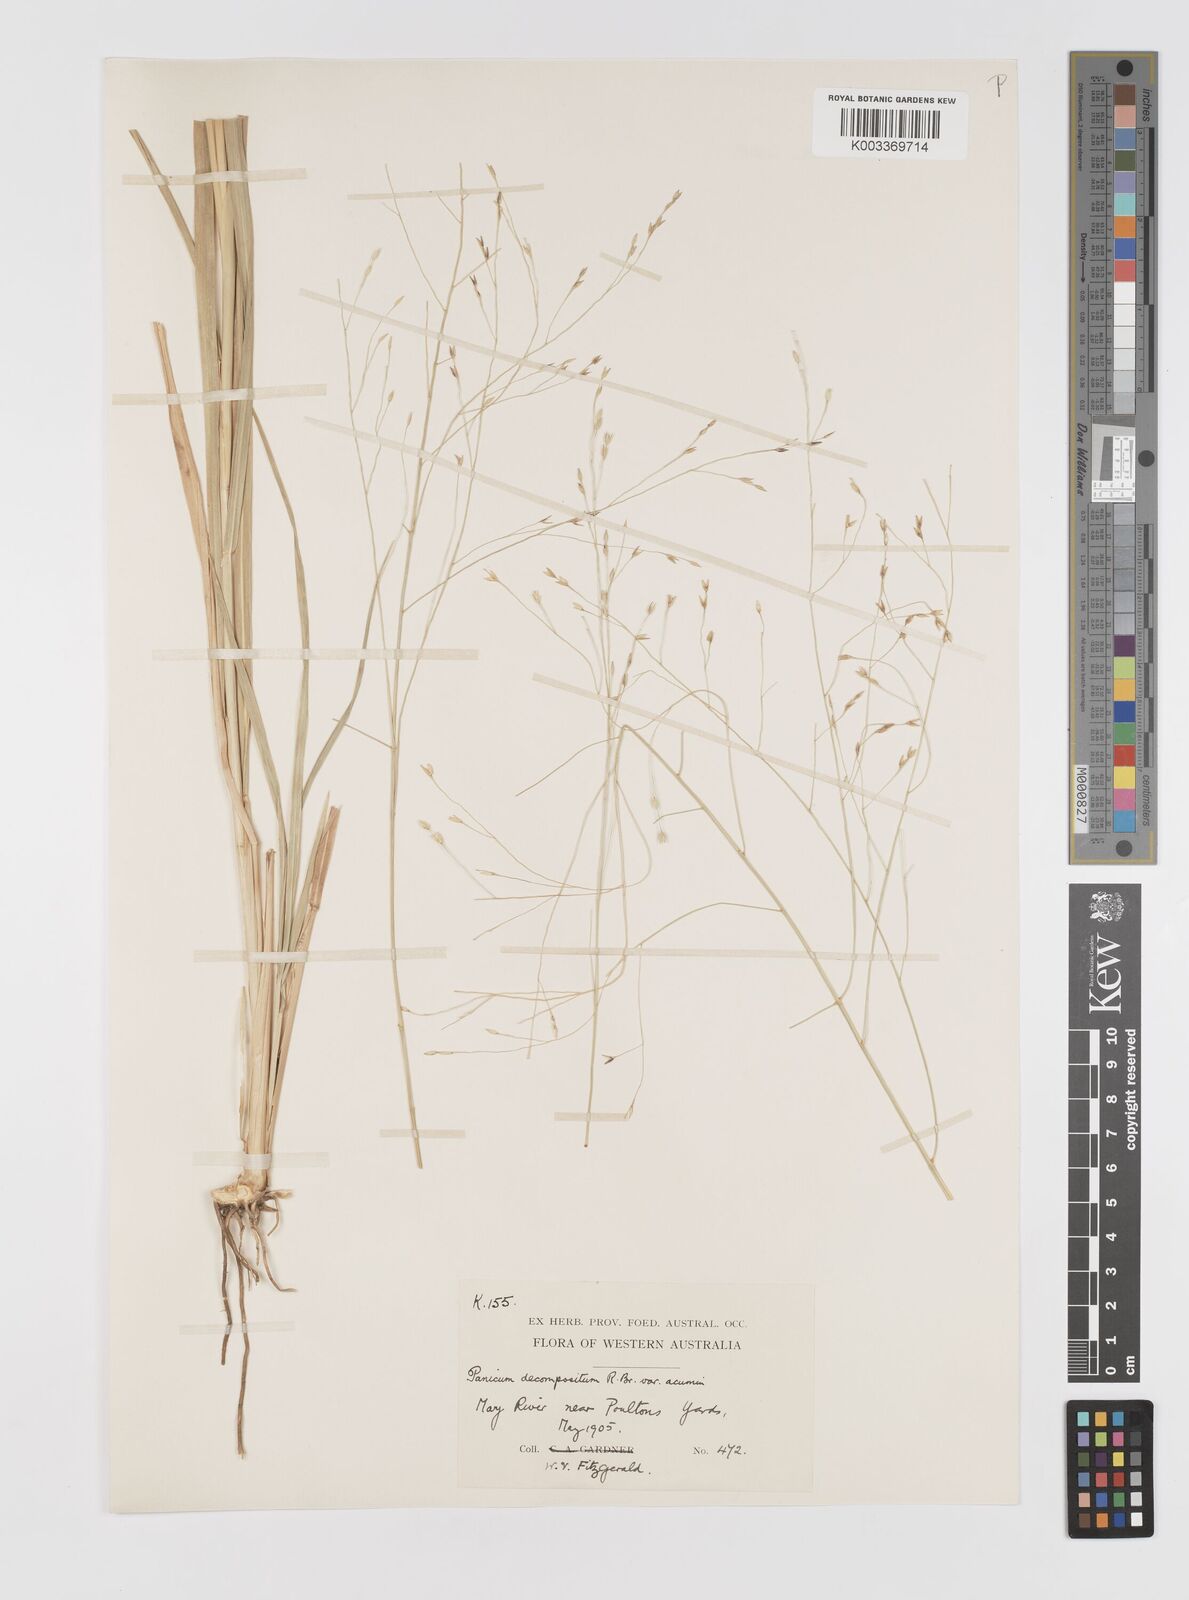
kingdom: Plantae
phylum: Tracheophyta
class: Liliopsida
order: Poales
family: Poaceae
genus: Panicum
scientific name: Panicum latzii
